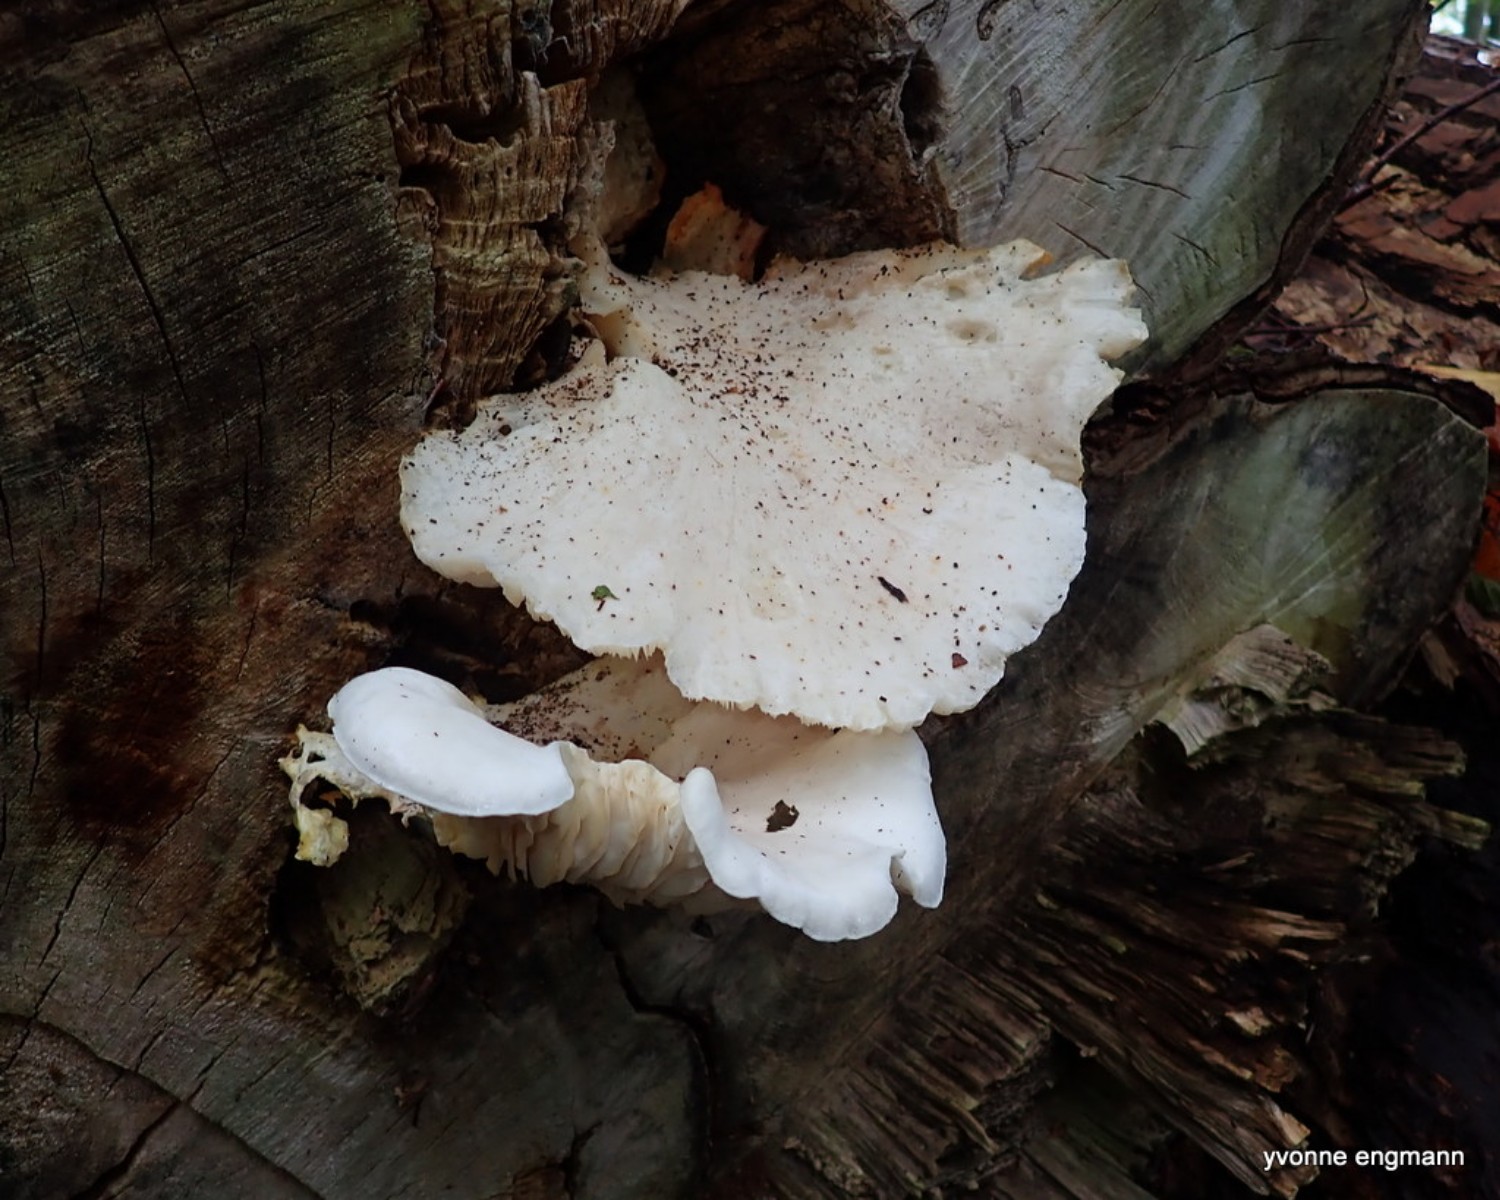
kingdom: Fungi
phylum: Basidiomycota
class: Agaricomycetes
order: Agaricales
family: Pleurotaceae
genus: Pleurotus
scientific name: Pleurotus dryinus
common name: korkagtig østershat
